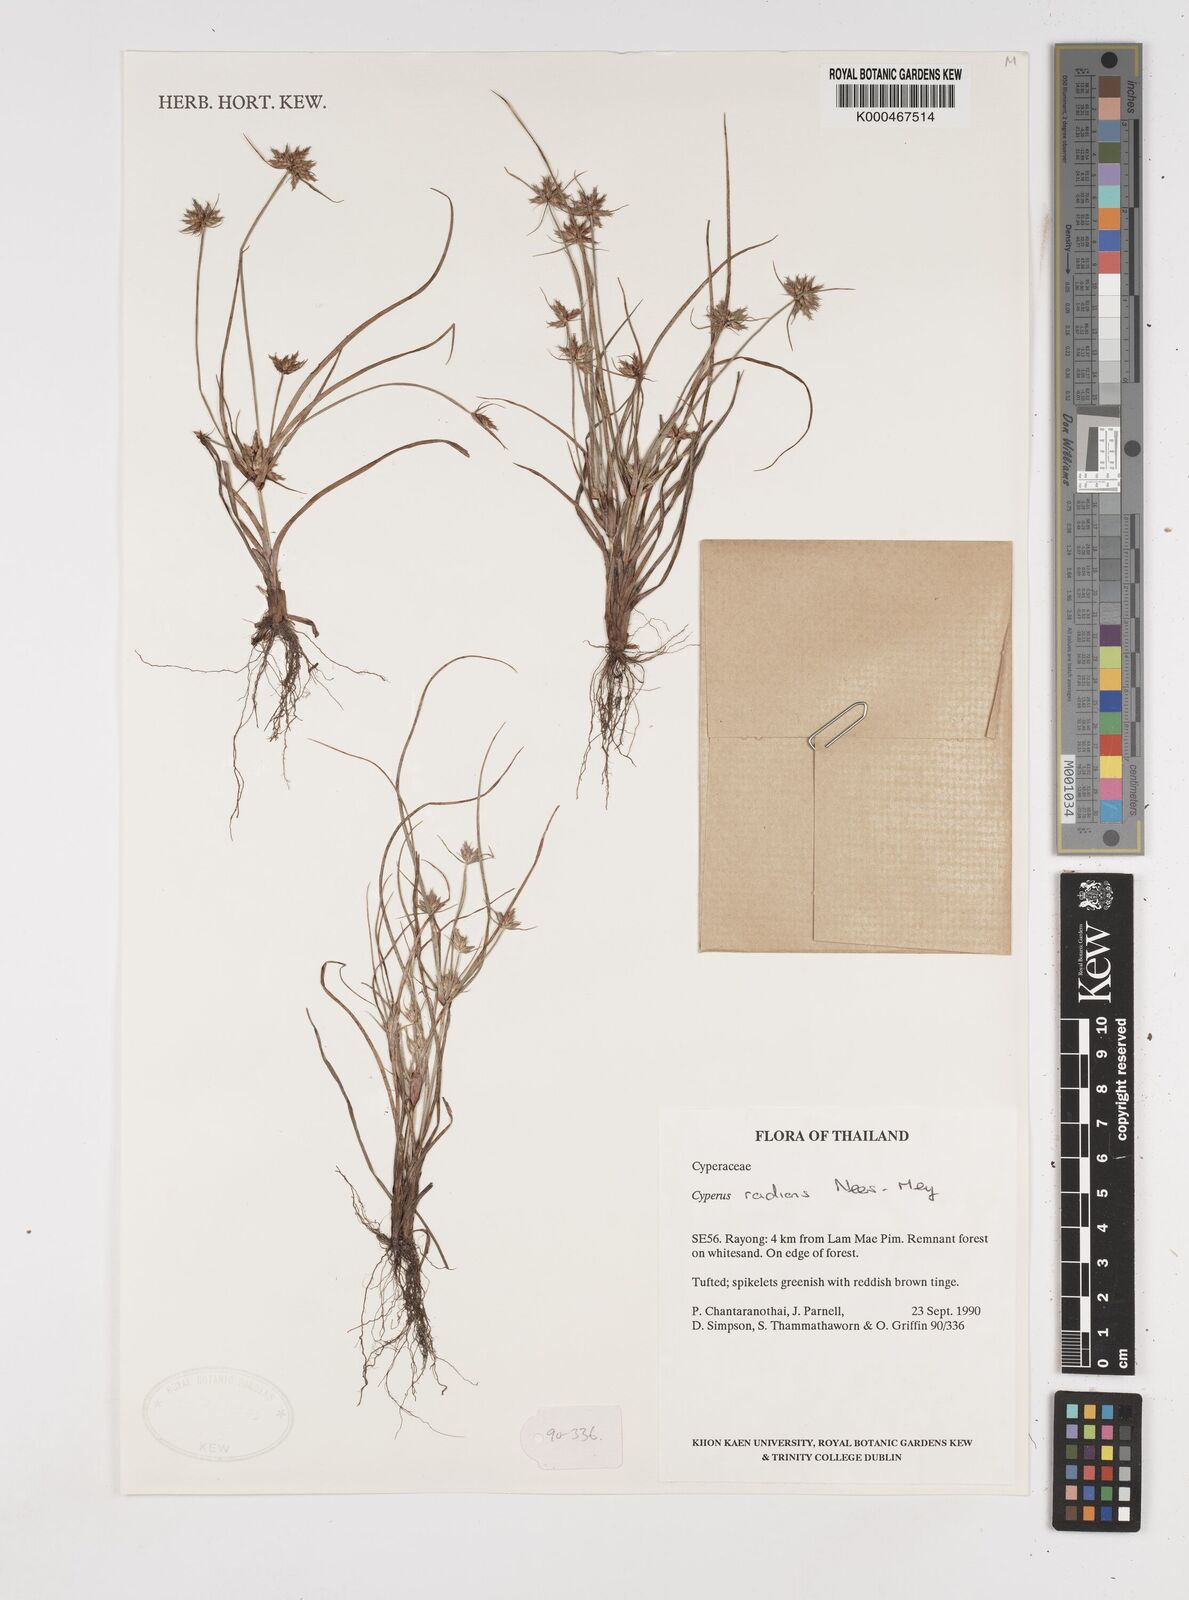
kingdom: Plantae
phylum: Tracheophyta
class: Liliopsida
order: Poales
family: Cyperaceae
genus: Cyperus
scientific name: Cyperus radians
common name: Short-stem cyperus
